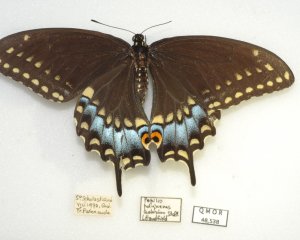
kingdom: Animalia
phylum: Arthropoda
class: Insecta
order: Lepidoptera
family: Papilionidae
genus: Papilio
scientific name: Papilio polyxenes
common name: Black Swallowtail
